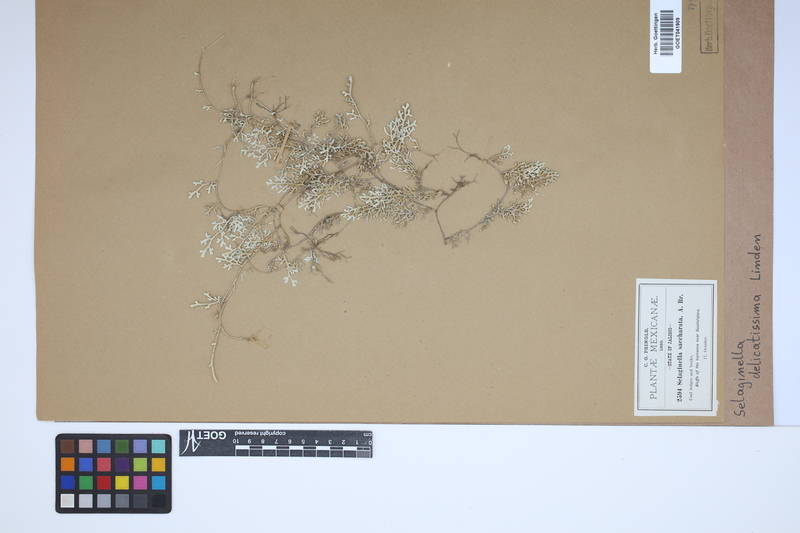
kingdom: Plantae
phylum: Tracheophyta
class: Lycopodiopsida
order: Selaginellales
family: Selaginellaceae
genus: Selaginella
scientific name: Selaginella delicatissima
